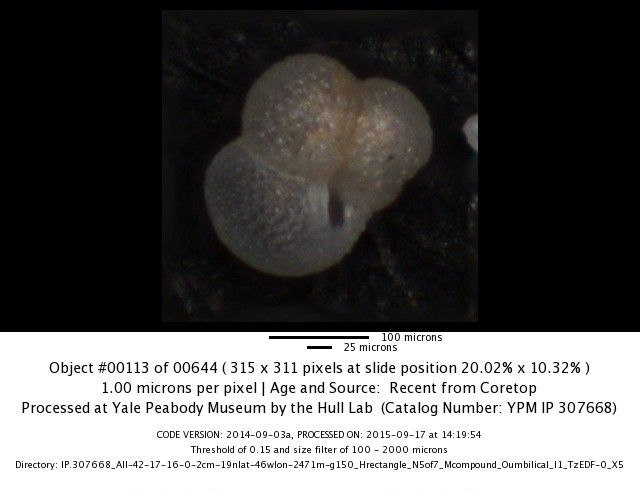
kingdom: Chromista
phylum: Foraminifera
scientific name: Foraminifera
